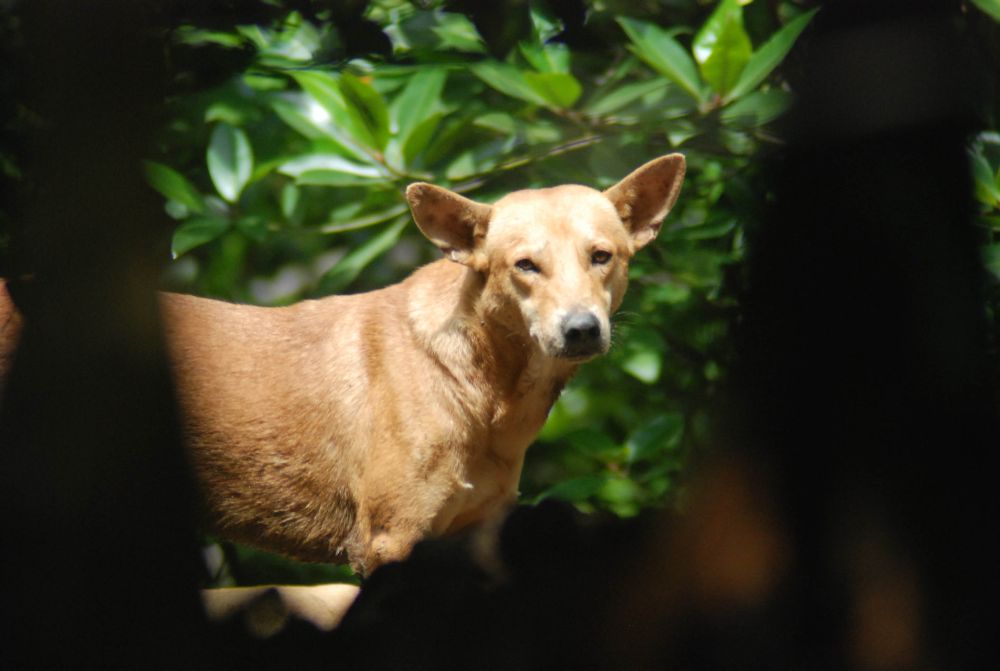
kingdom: Animalia
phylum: Chordata
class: Mammalia
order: Carnivora
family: Canidae
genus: Canis
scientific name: Canis lupus
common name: Gray wolf
